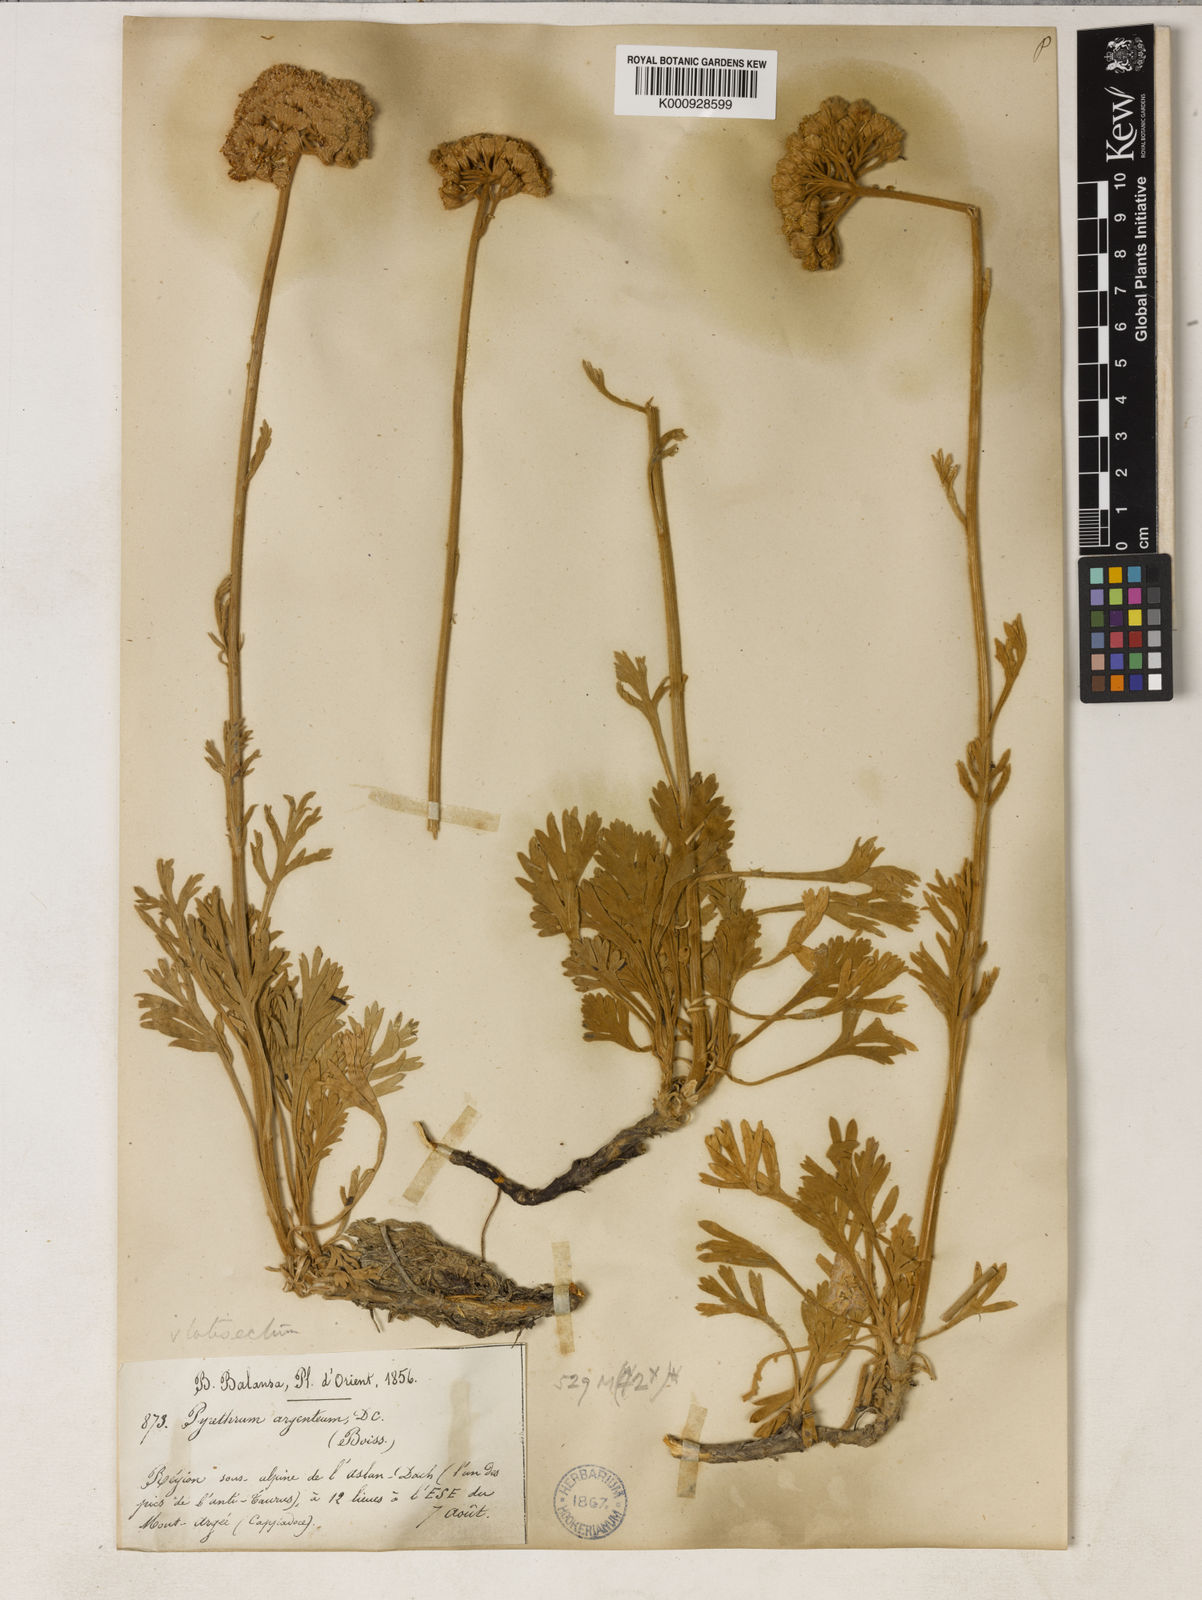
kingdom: Plantae
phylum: Tracheophyta
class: Magnoliopsida
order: Asterales
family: Asteraceae
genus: Tanacetum
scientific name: Tanacetum argenteum
